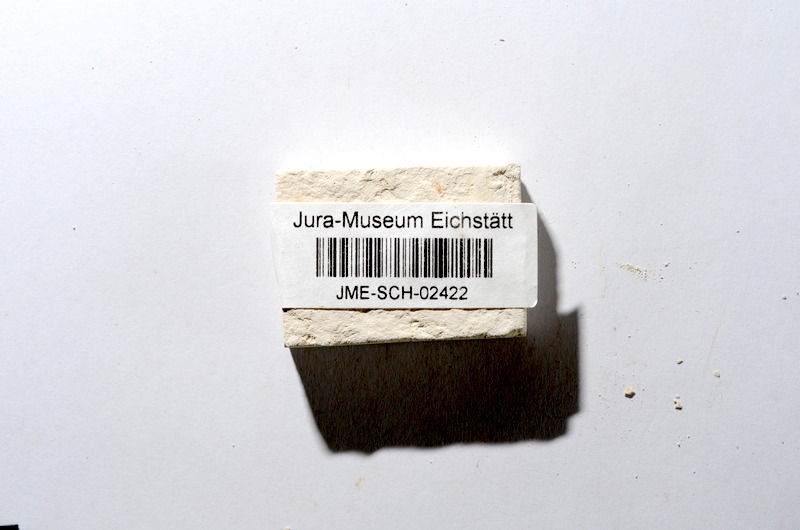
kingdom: Animalia
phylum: Chordata
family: Ascalaboidae
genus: Tharsis
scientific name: Tharsis dubius
